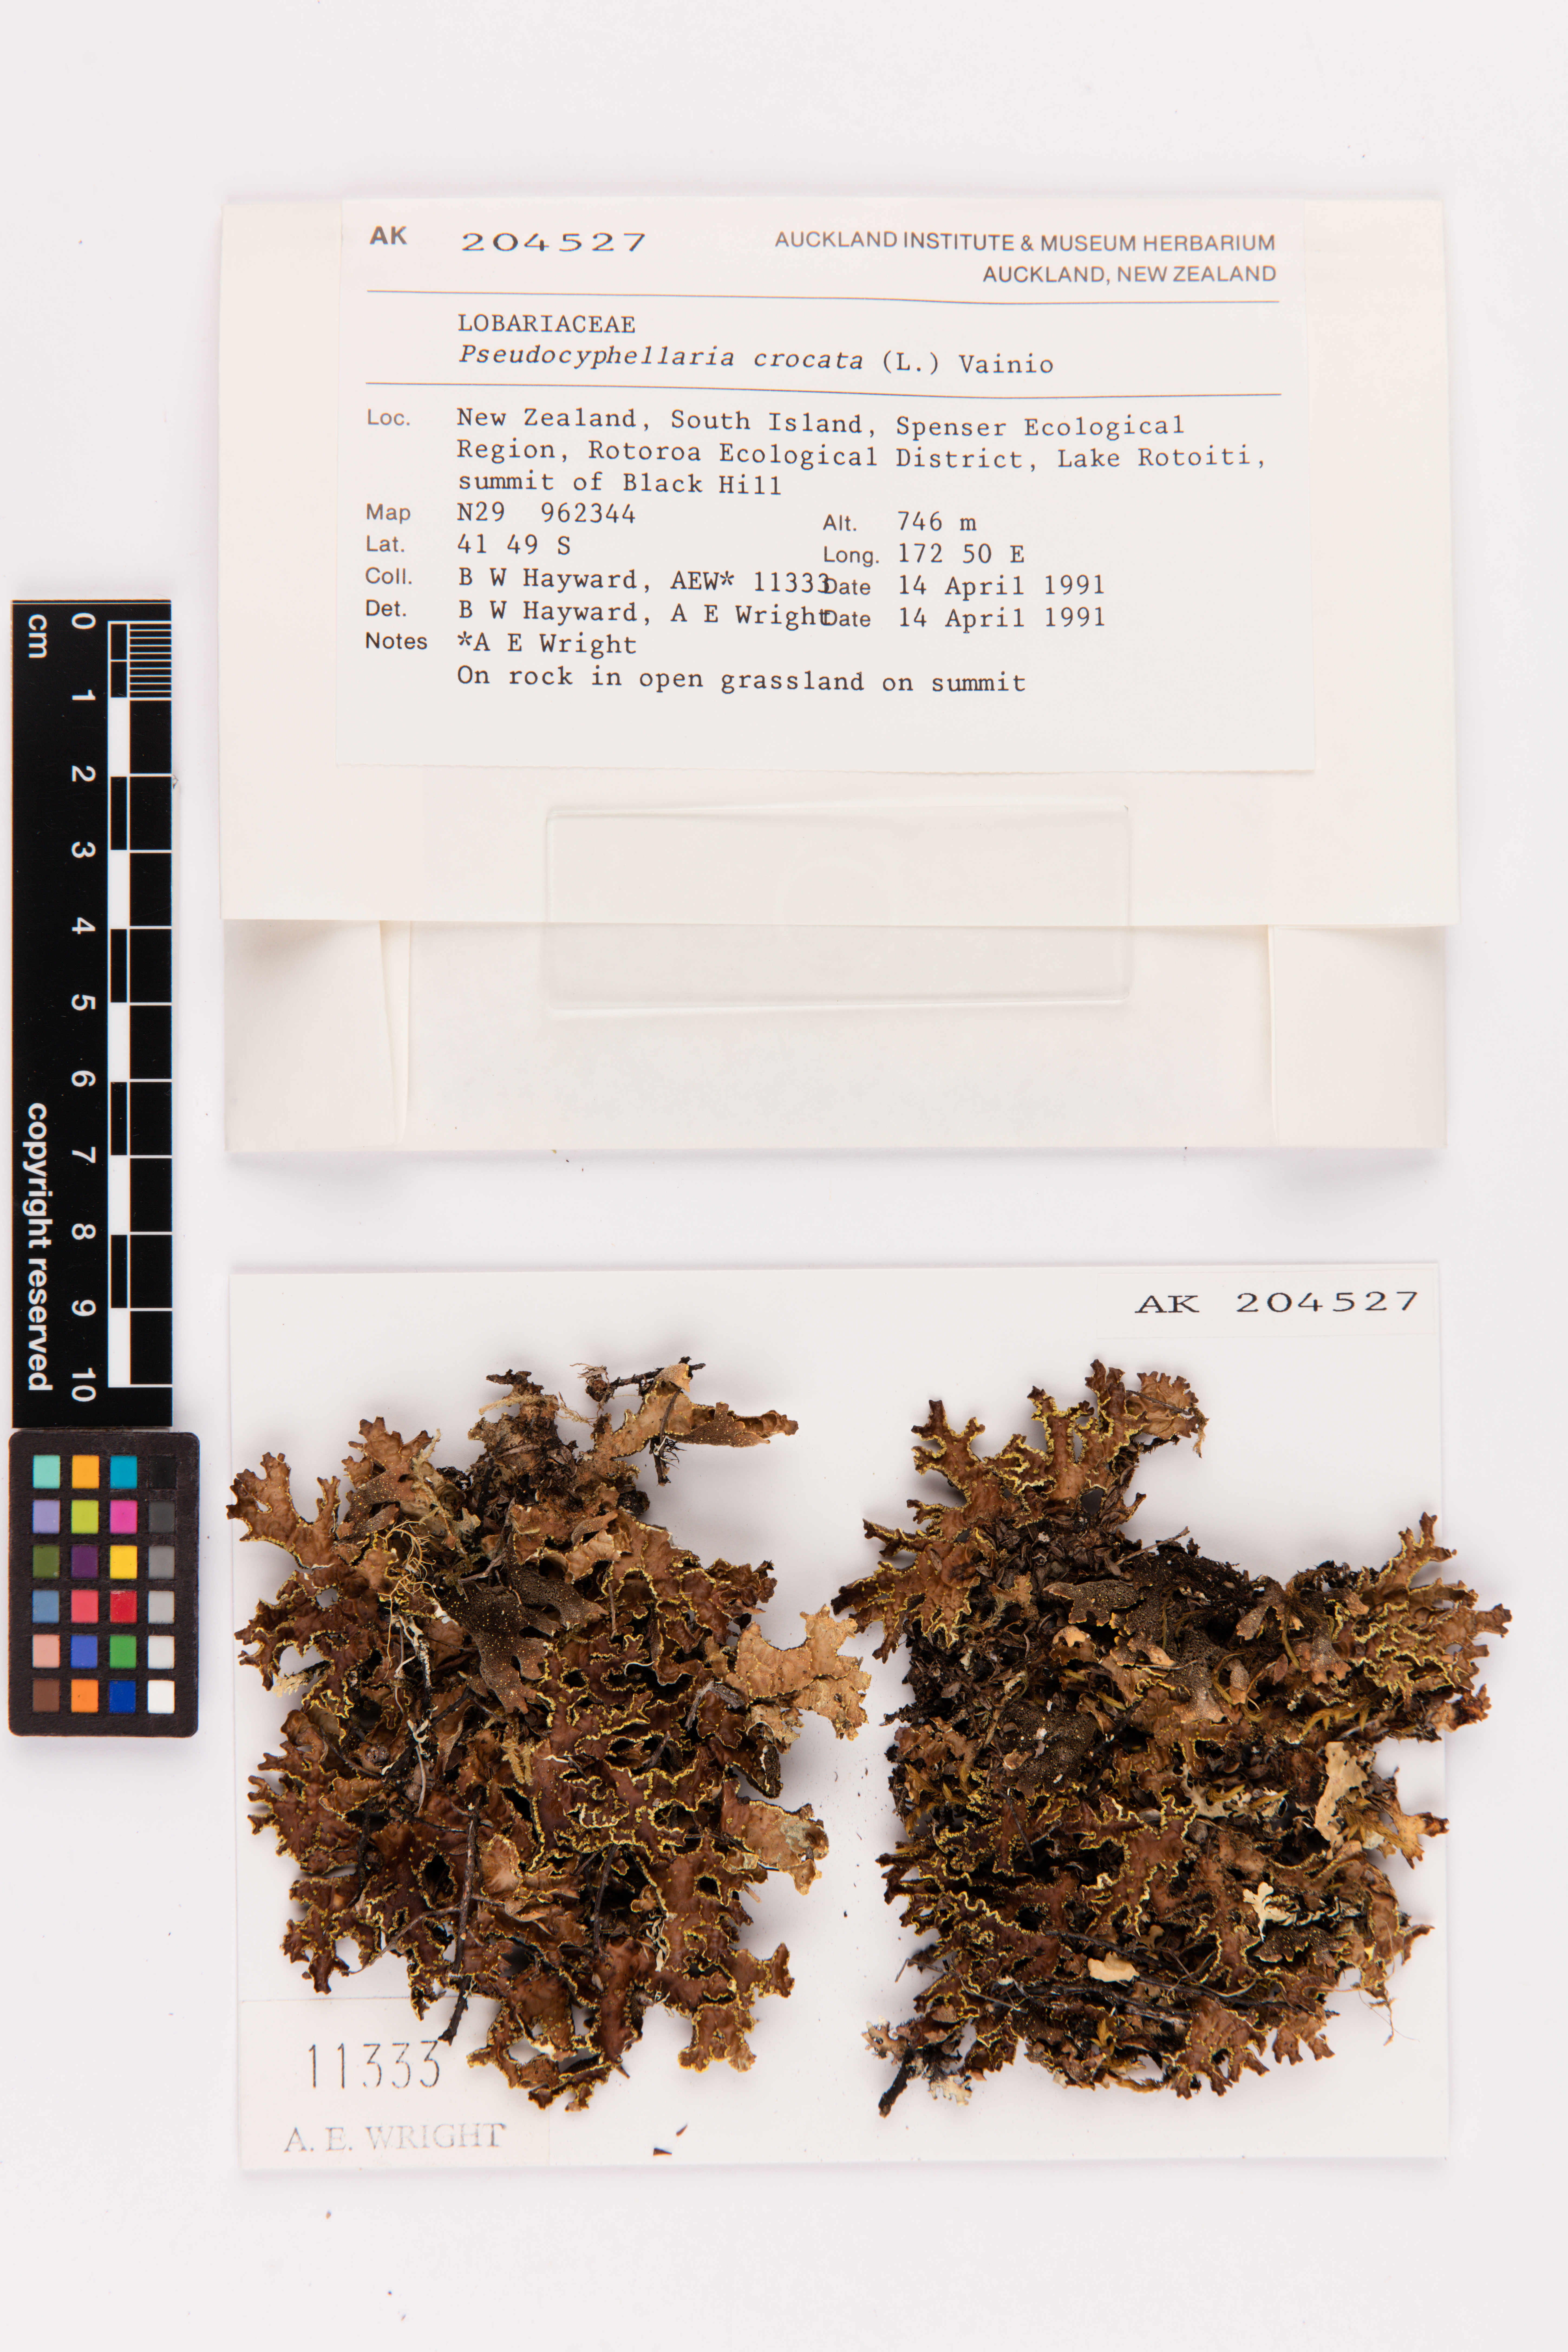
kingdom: Fungi
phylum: Ascomycota
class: Lecanoromycetes
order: Peltigerales
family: Lobariaceae
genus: Pseudocyphellaria
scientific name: Pseudocyphellaria crocata
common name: Golden specklebelly
